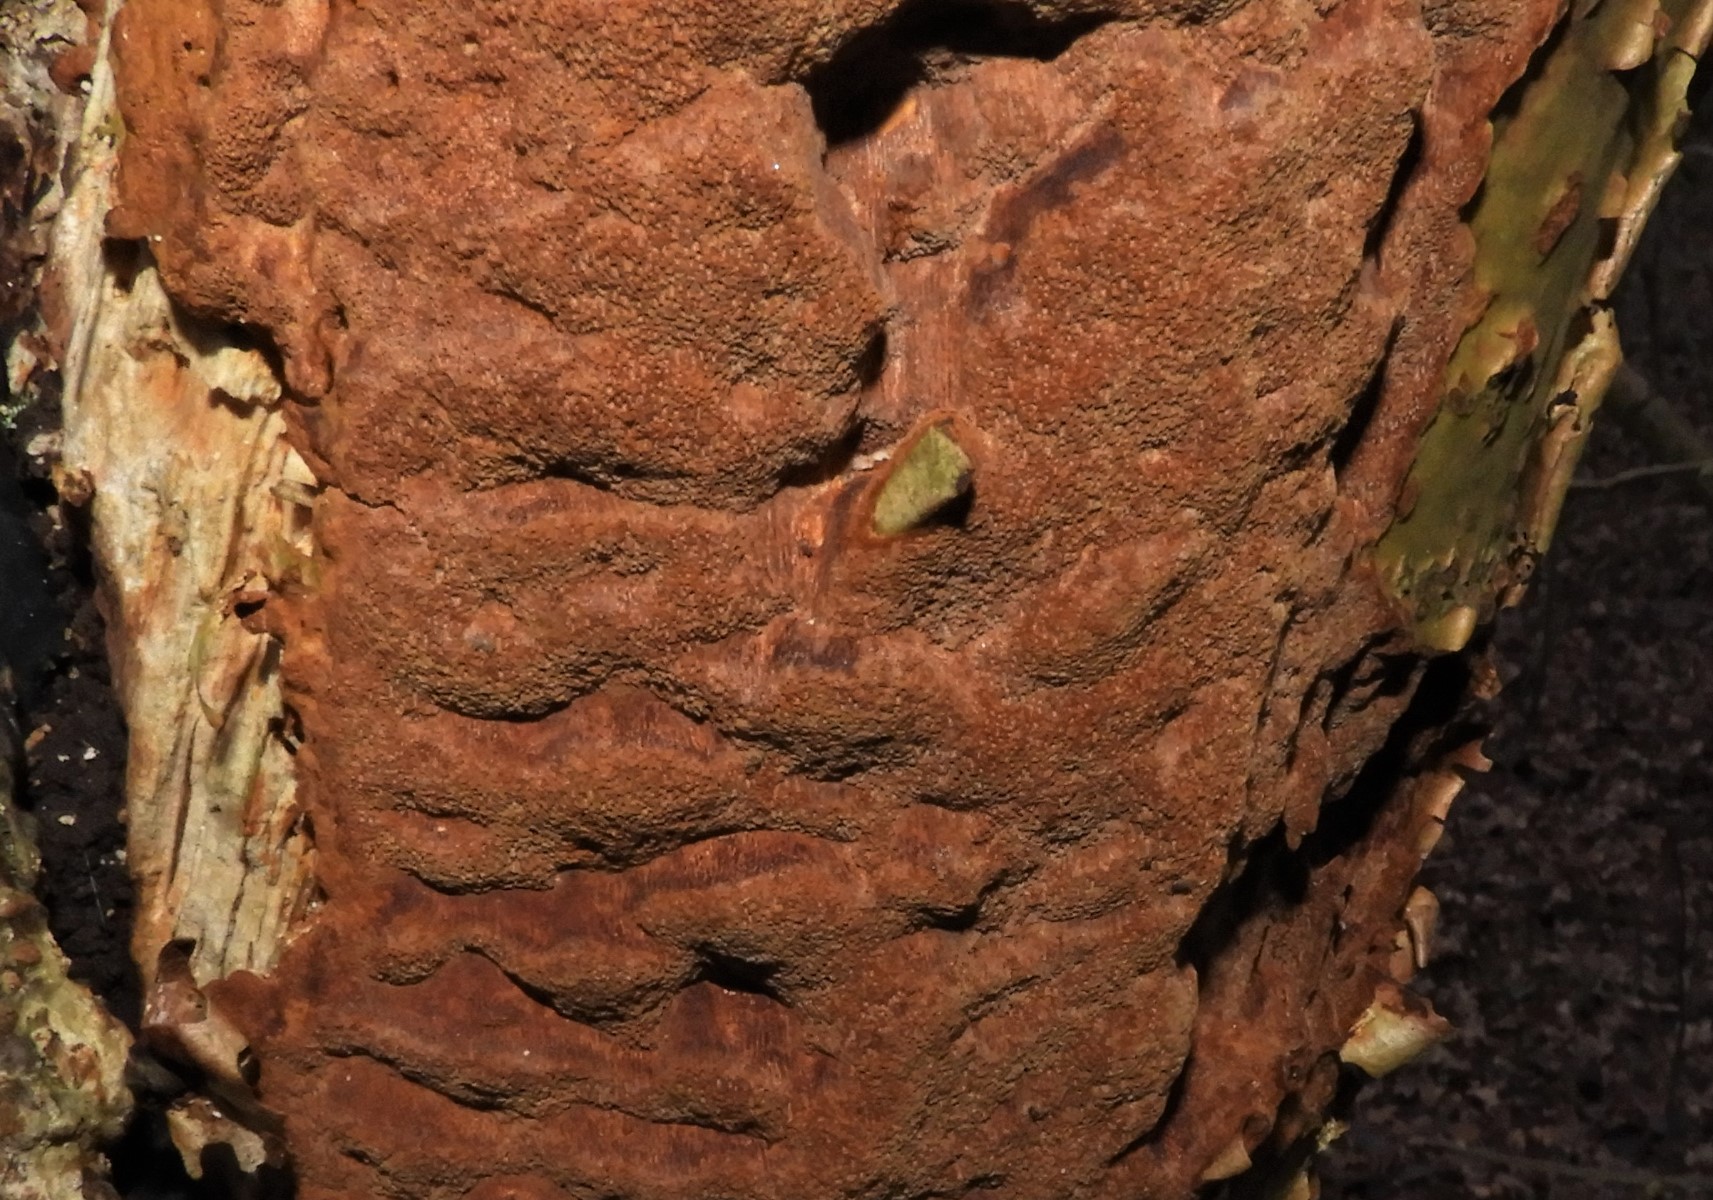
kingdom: Fungi
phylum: Basidiomycota
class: Agaricomycetes
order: Hymenochaetales
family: Hymenochaetaceae
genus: Fuscoporia
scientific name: Fuscoporia ferrea
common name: skorpe-ildporesvamp
